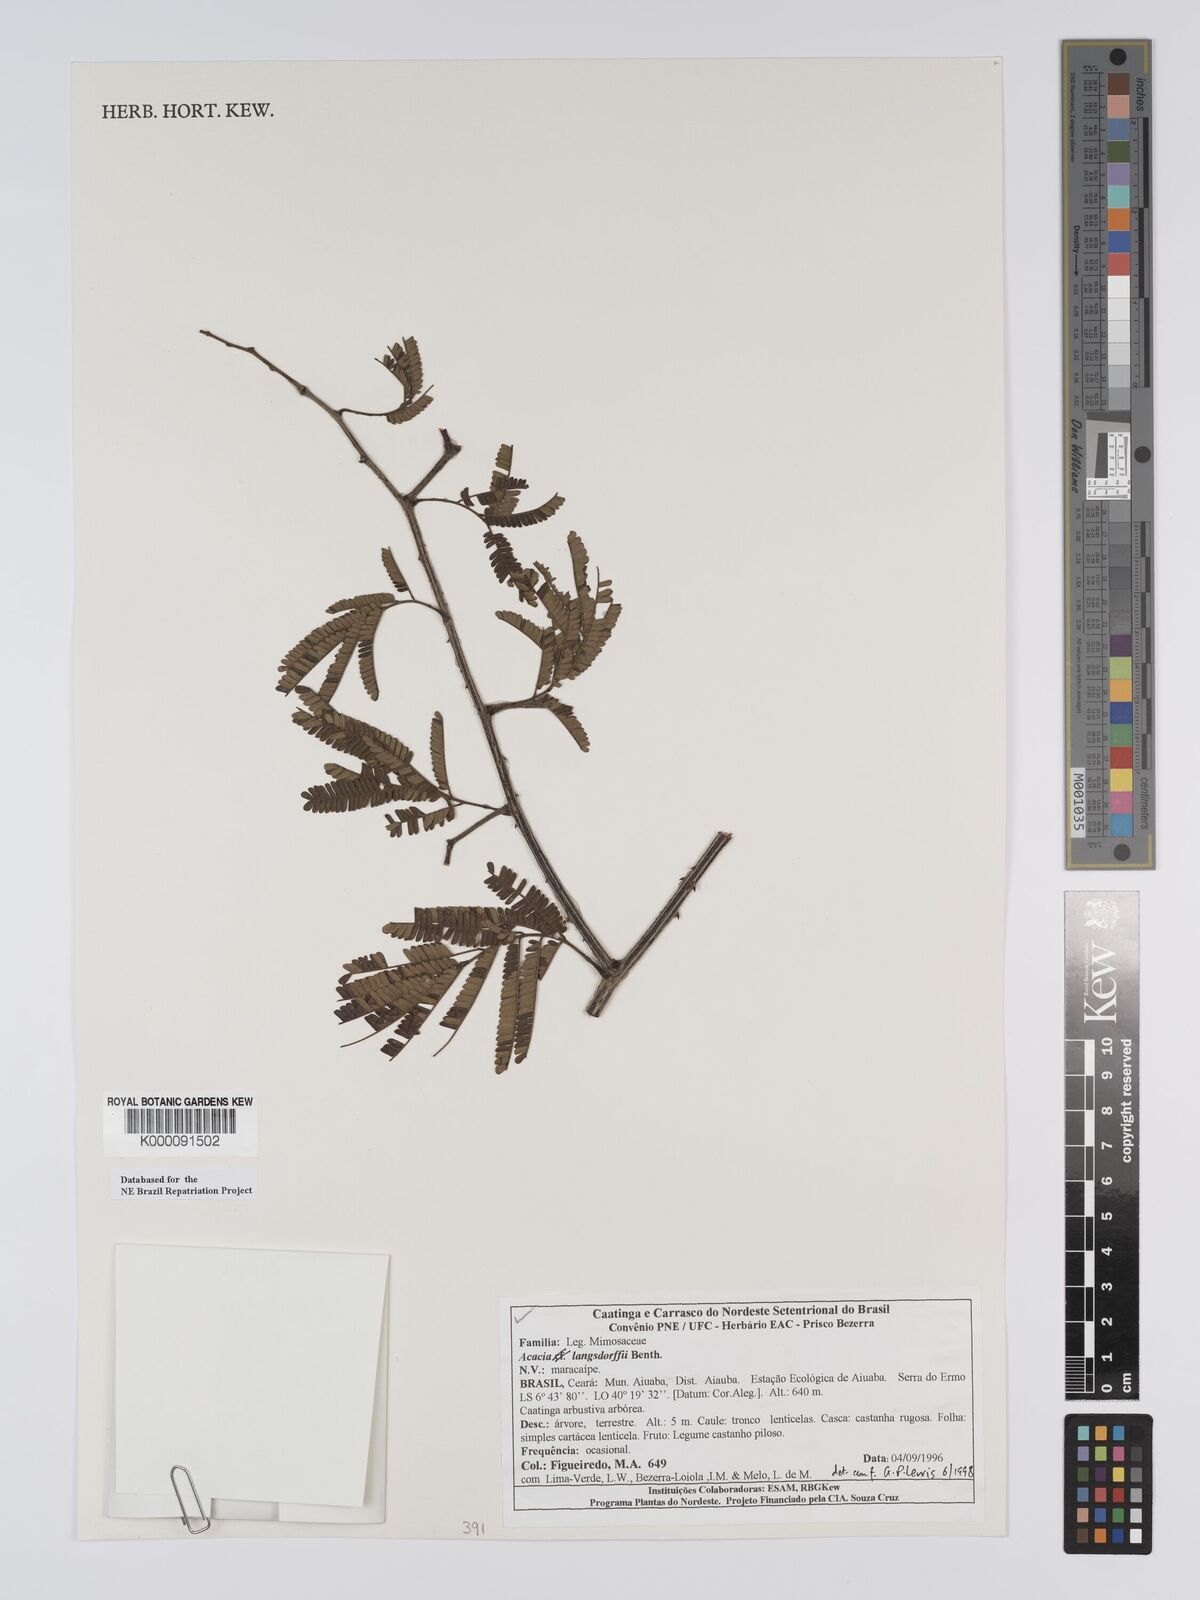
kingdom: Plantae
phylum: Tracheophyta
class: Magnoliopsida
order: Fabales
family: Fabaceae
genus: Senegalia
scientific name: Senegalia langsdorffii
